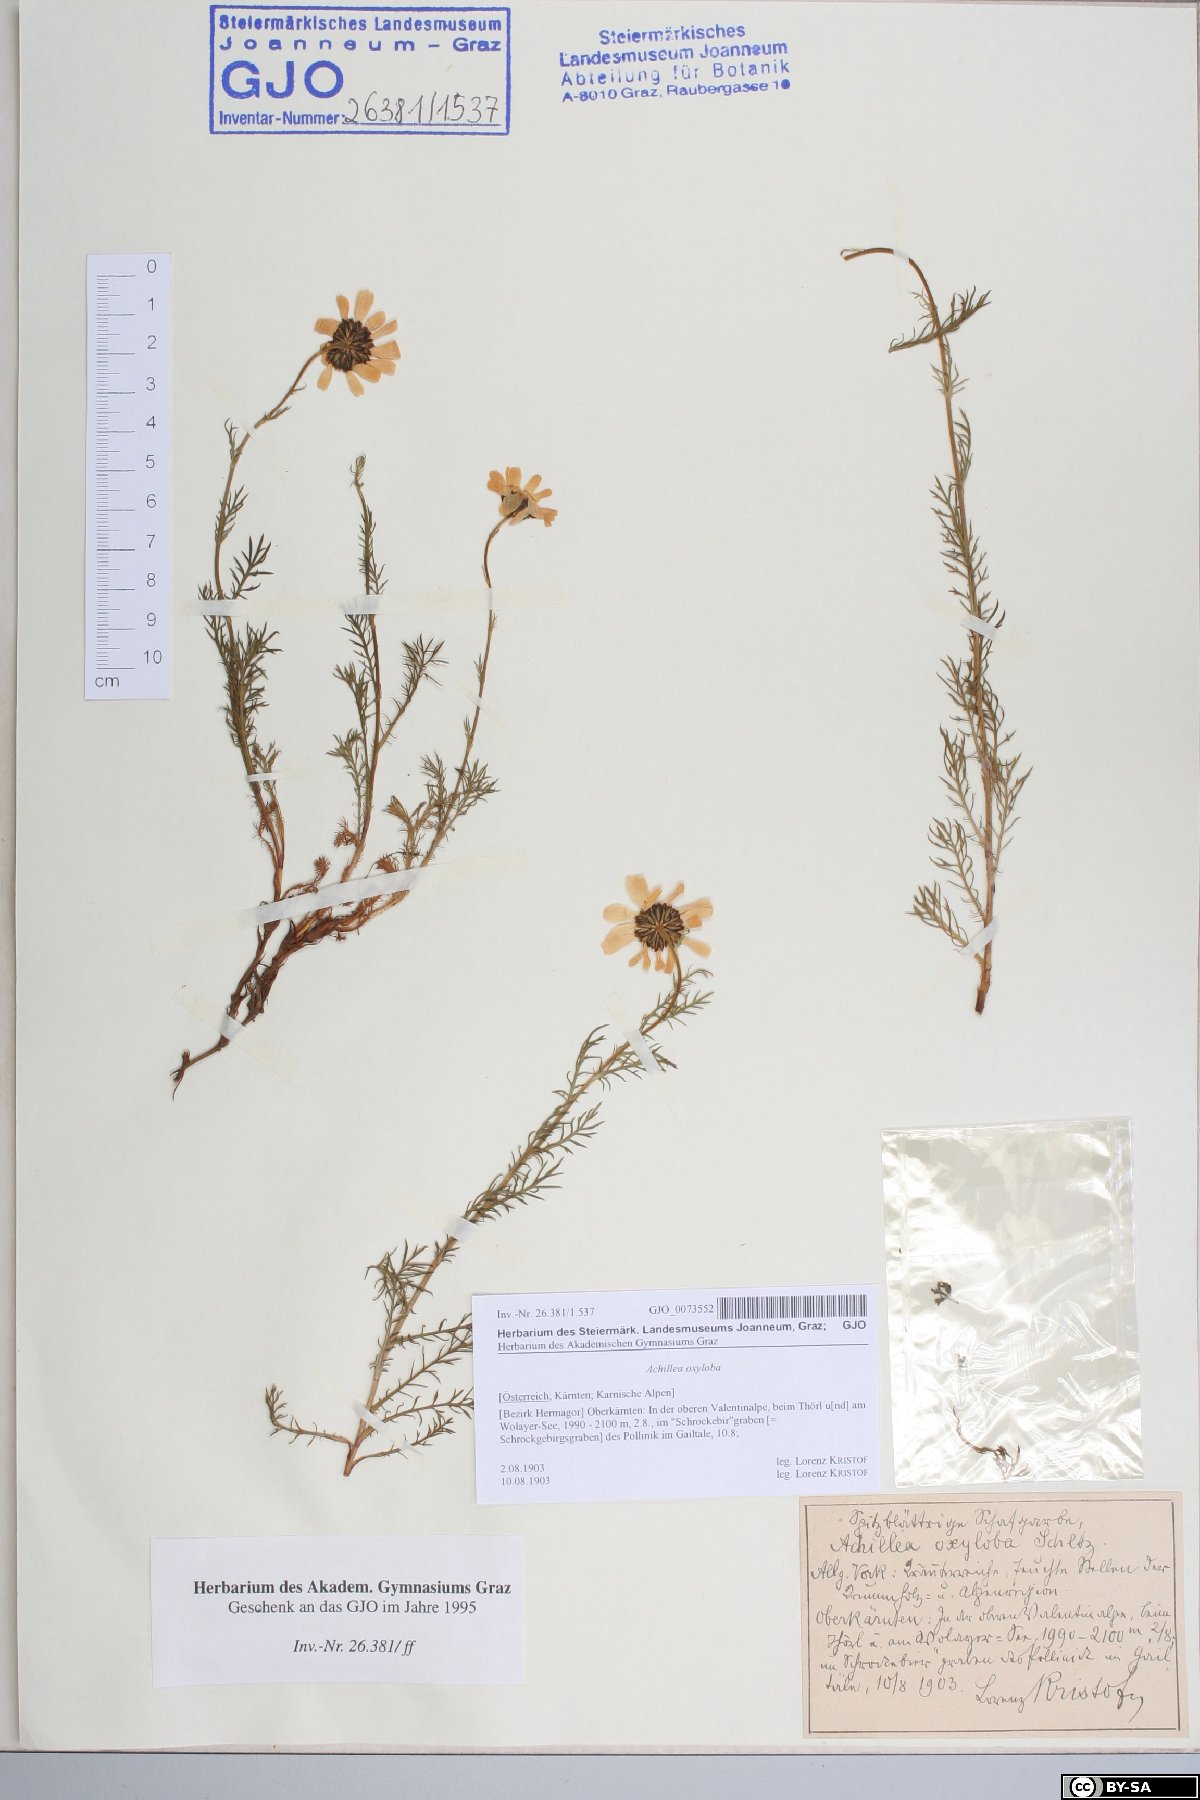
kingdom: Plantae
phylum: Tracheophyta
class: Magnoliopsida
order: Asterales
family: Asteraceae
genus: Achillea
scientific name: Achillea oxyloba
